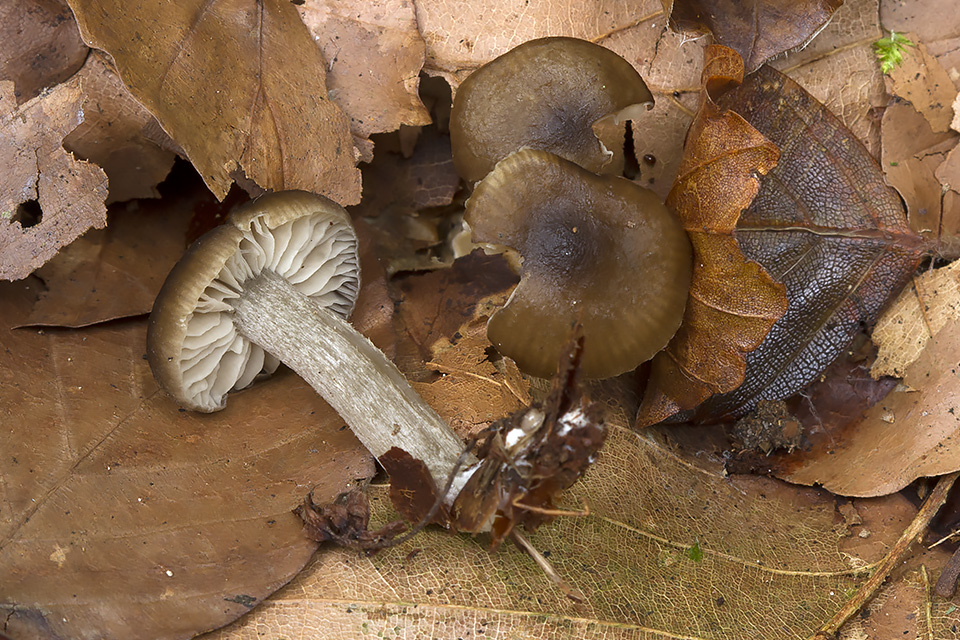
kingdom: Fungi
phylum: Basidiomycota
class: Agaricomycetes
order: Agaricales
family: Entolomataceae
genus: Entoloma
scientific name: Entoloma subradiatum
